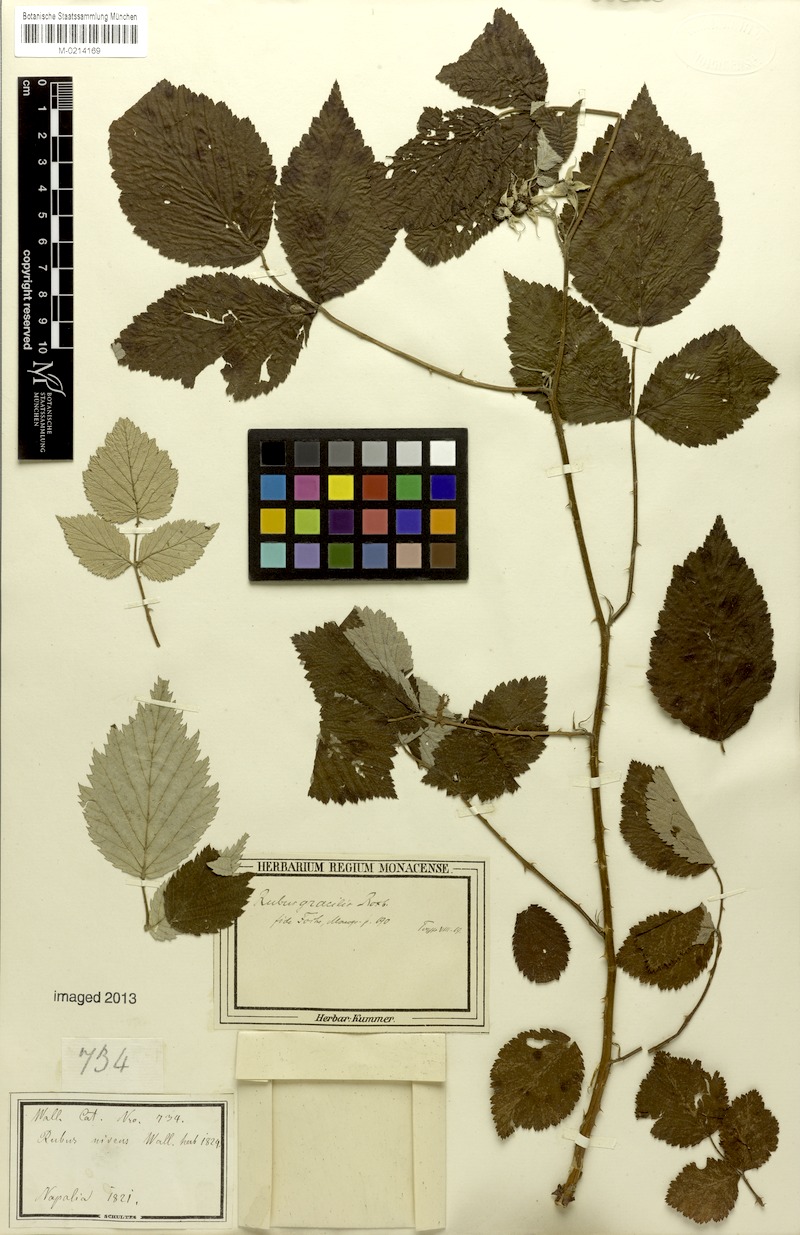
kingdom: Plantae
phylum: Tracheophyta
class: Magnoliopsida
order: Rosales
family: Rosaceae
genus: Rubus
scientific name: Rubus pedunculosus
